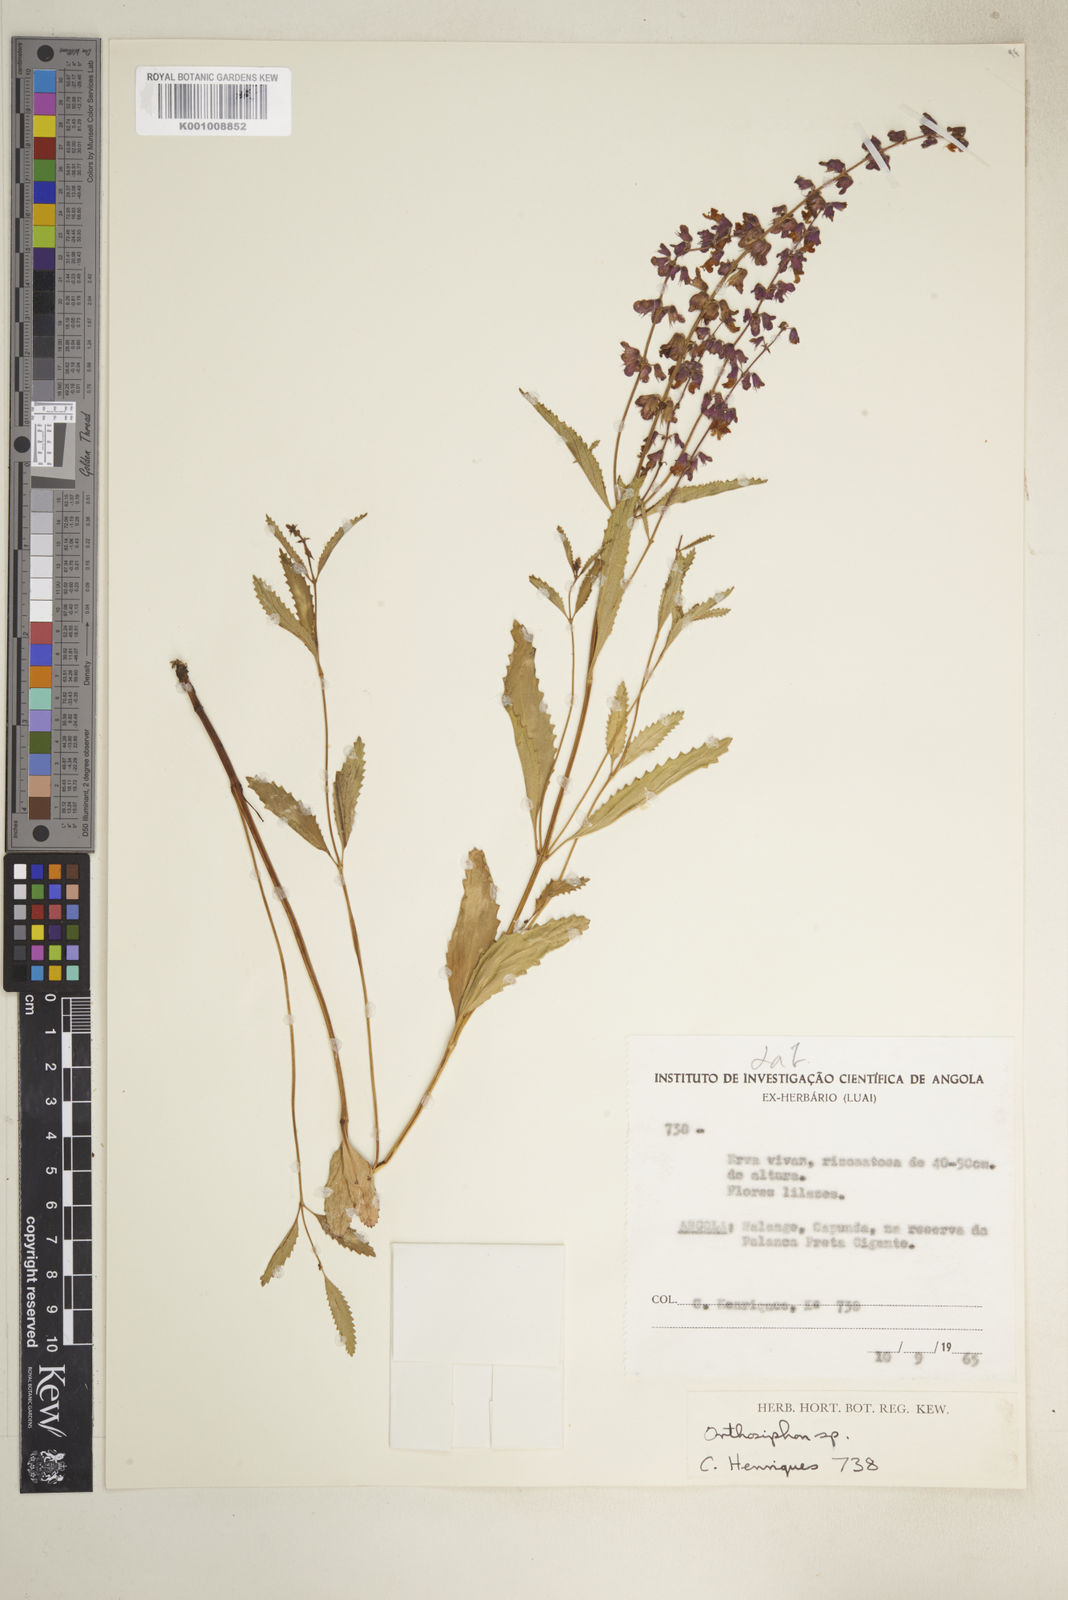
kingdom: Plantae
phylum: Tracheophyta
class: Magnoliopsida
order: Lamiales
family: Lamiaceae
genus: Orthosiphon
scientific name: Orthosiphon cuanzae
